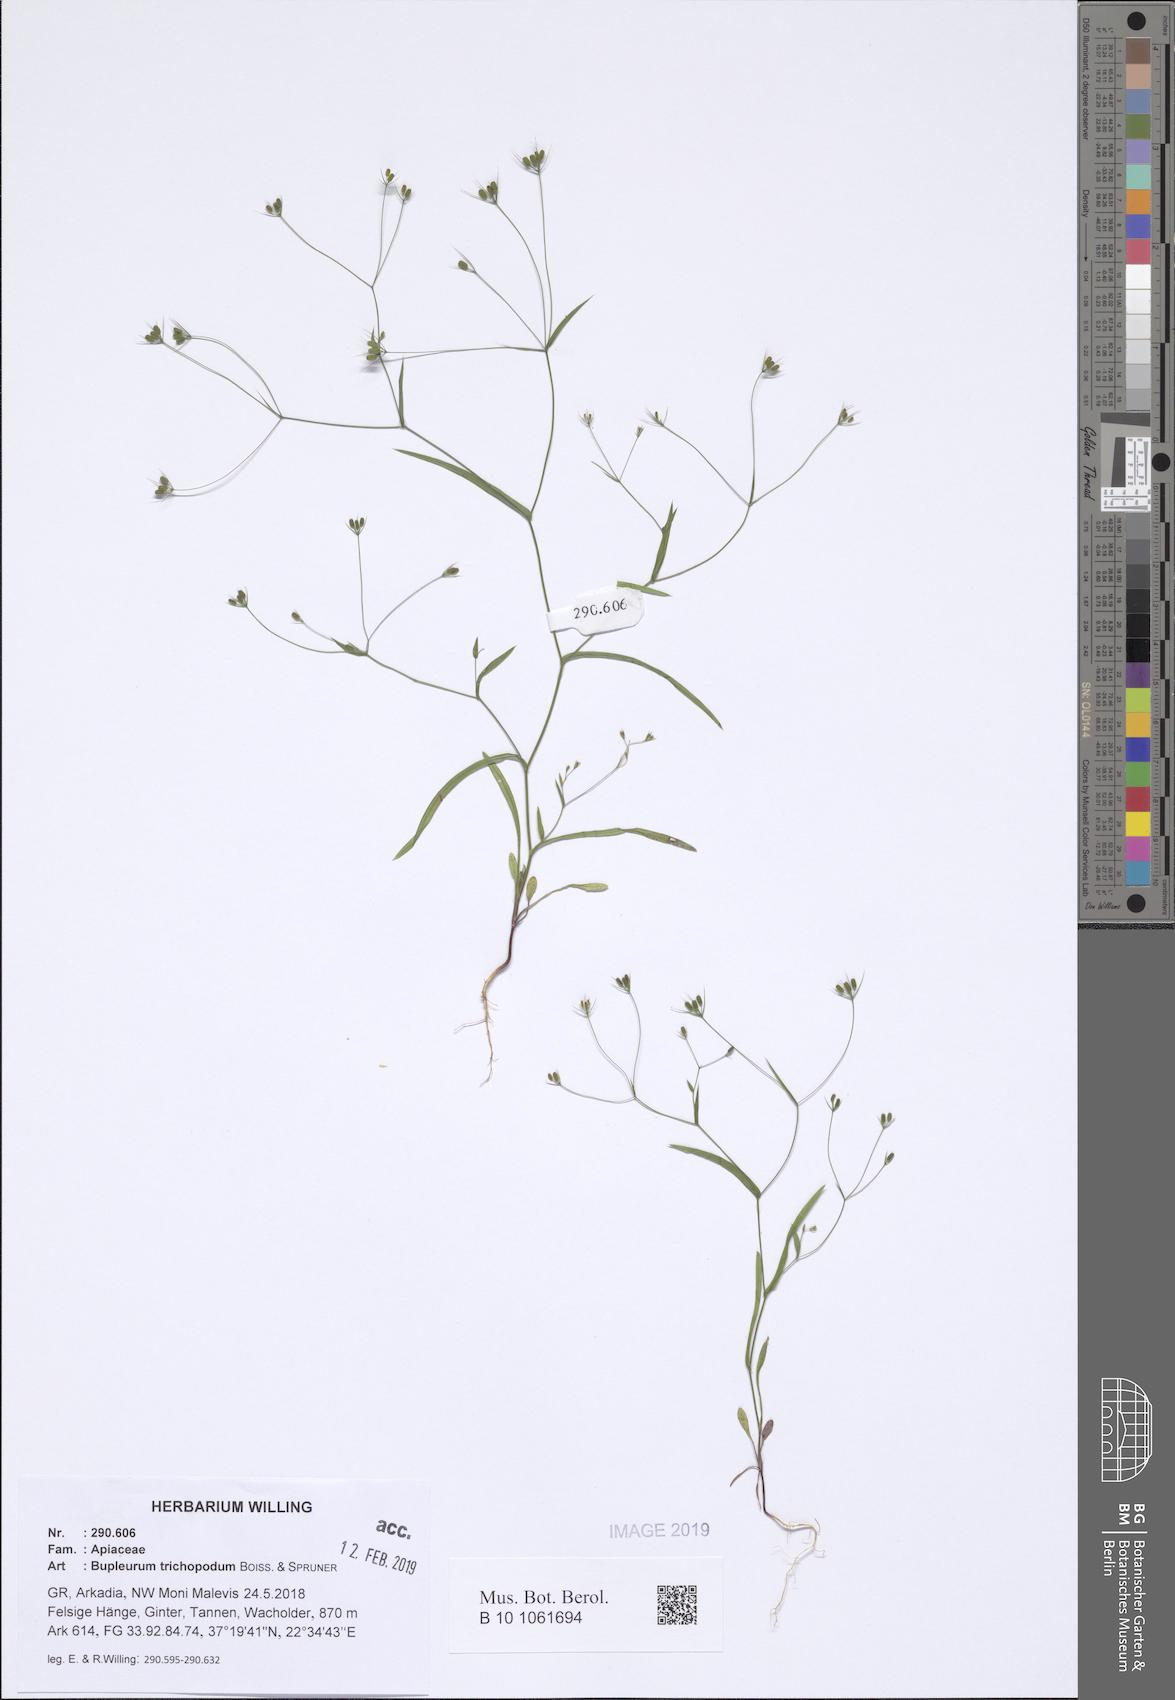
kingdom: Plantae
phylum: Tracheophyta
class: Magnoliopsida
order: Apiales
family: Apiaceae
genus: Bupleurum
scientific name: Bupleurum trichopodum
